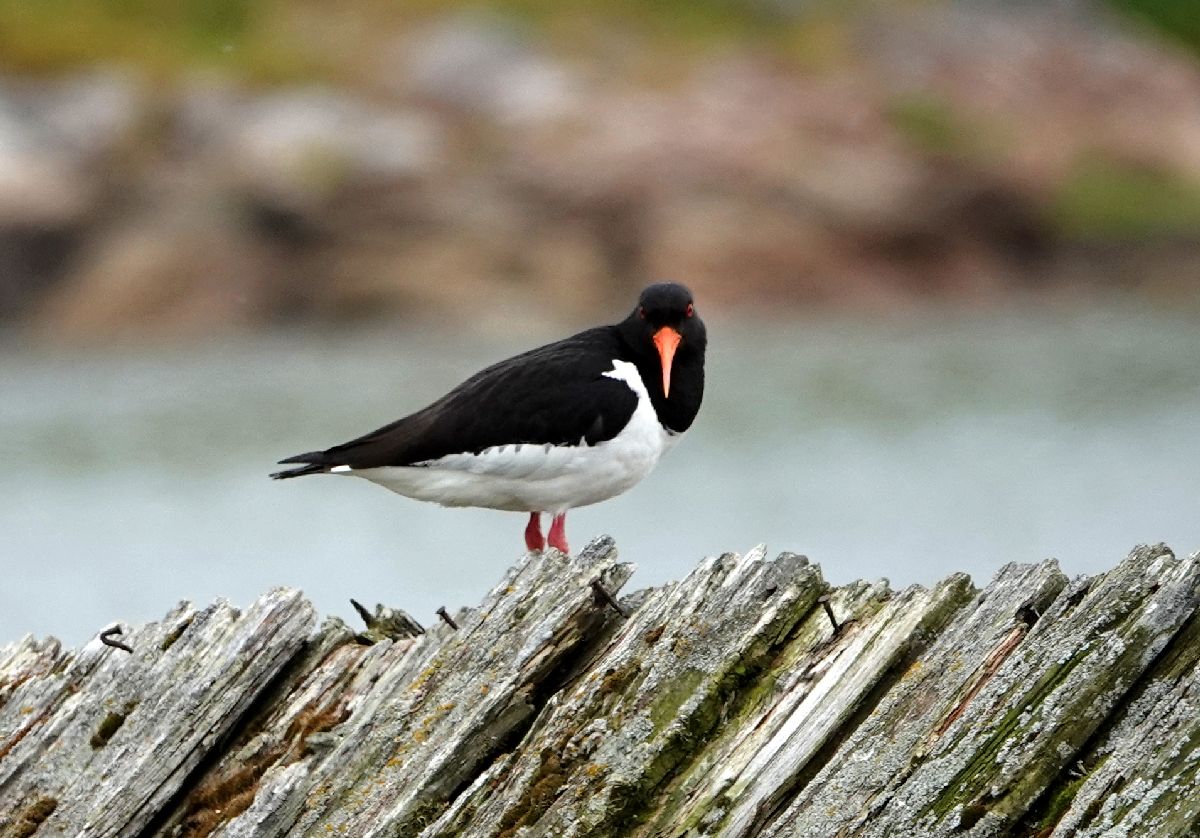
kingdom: Animalia
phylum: Chordata
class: Aves
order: Charadriiformes
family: Haematopodidae
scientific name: Haematopodidae
